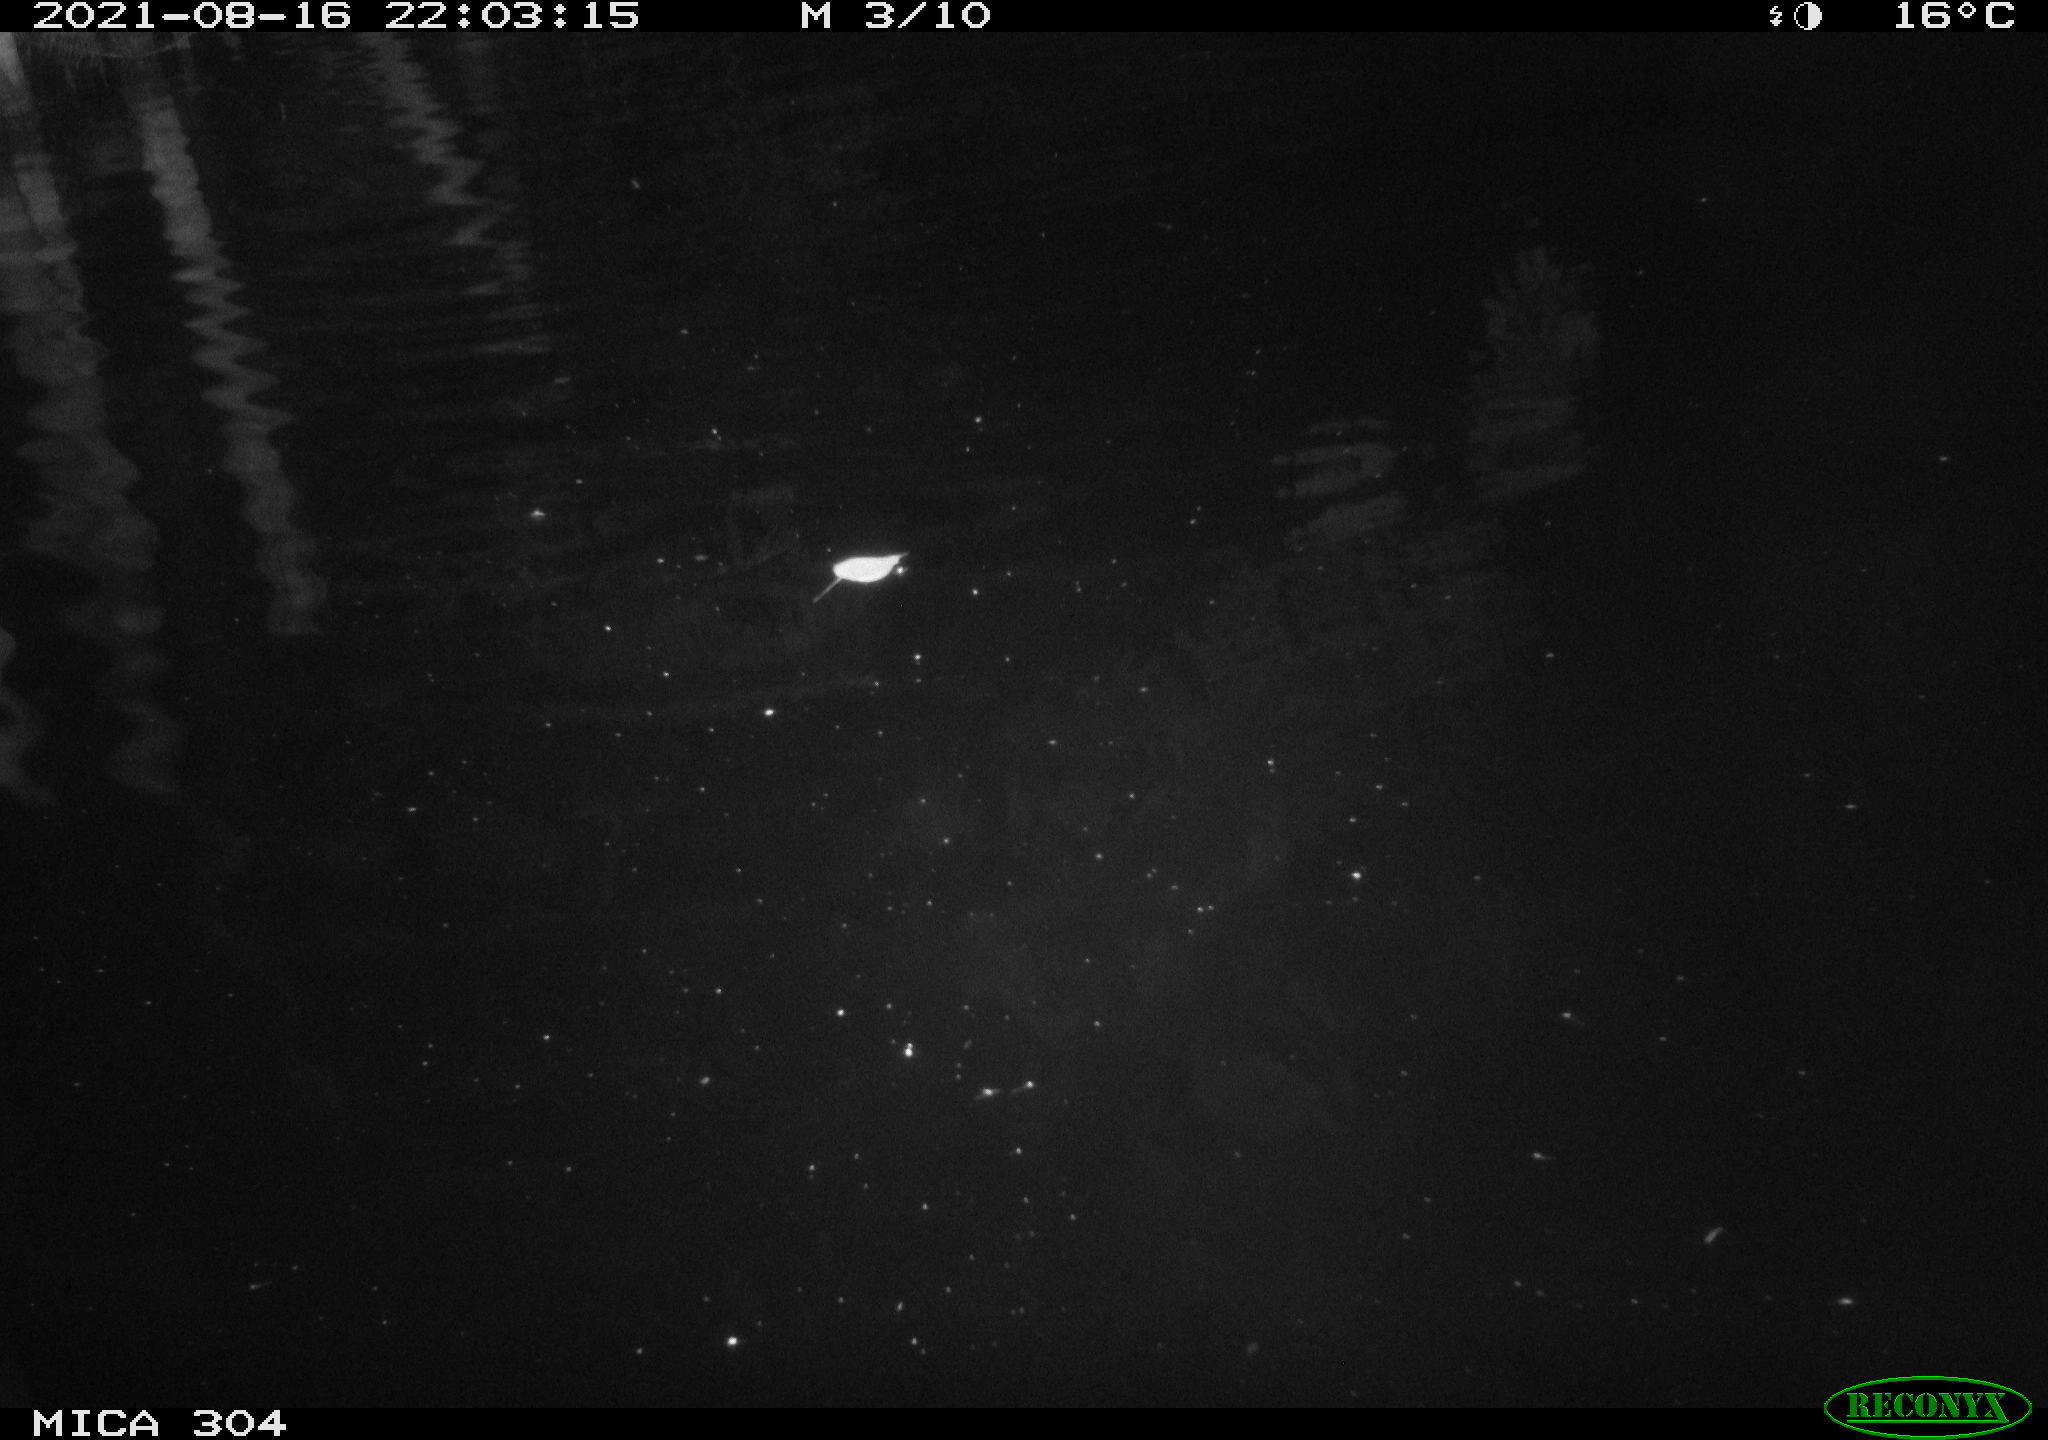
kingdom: Animalia
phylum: Chordata
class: Aves
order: Anseriformes
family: Anatidae
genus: Anas
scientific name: Anas platyrhynchos
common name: Mallard
